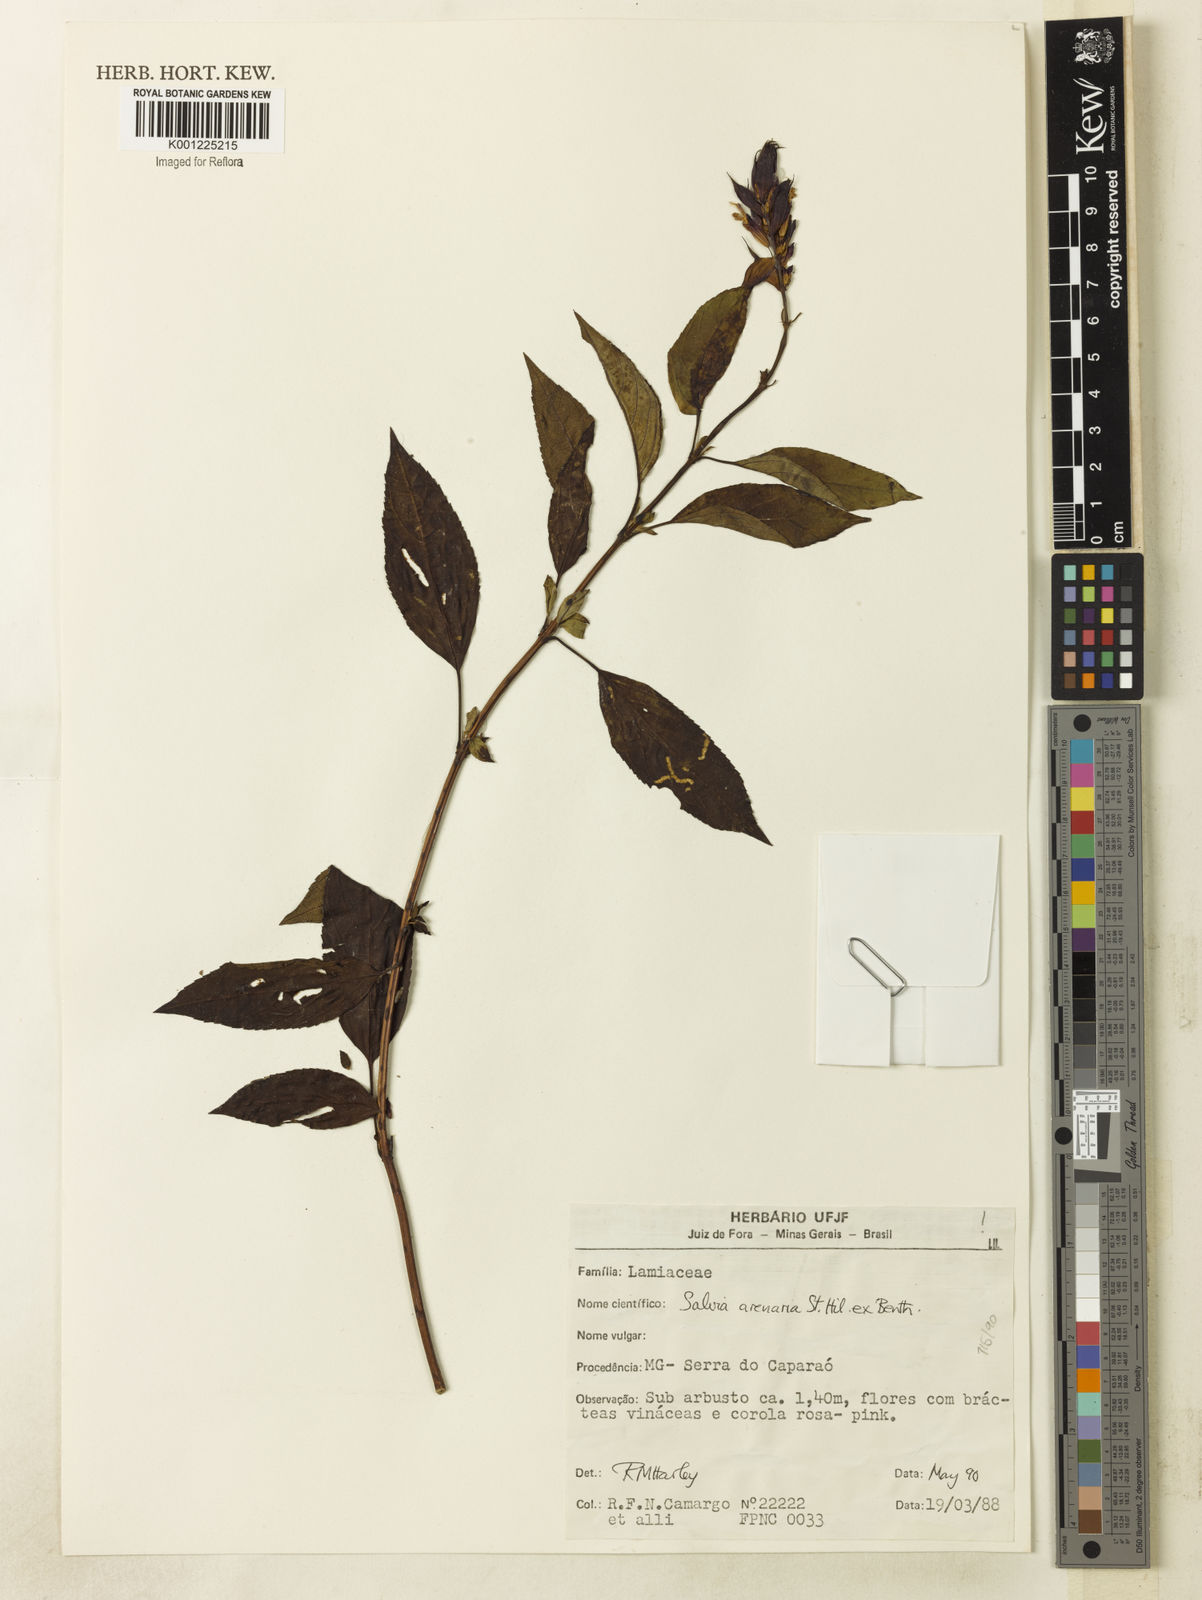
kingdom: Plantae
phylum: Tracheophyta
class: Magnoliopsida
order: Lamiales
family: Lamiaceae
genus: Salvia
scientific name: Salvia arenaria
